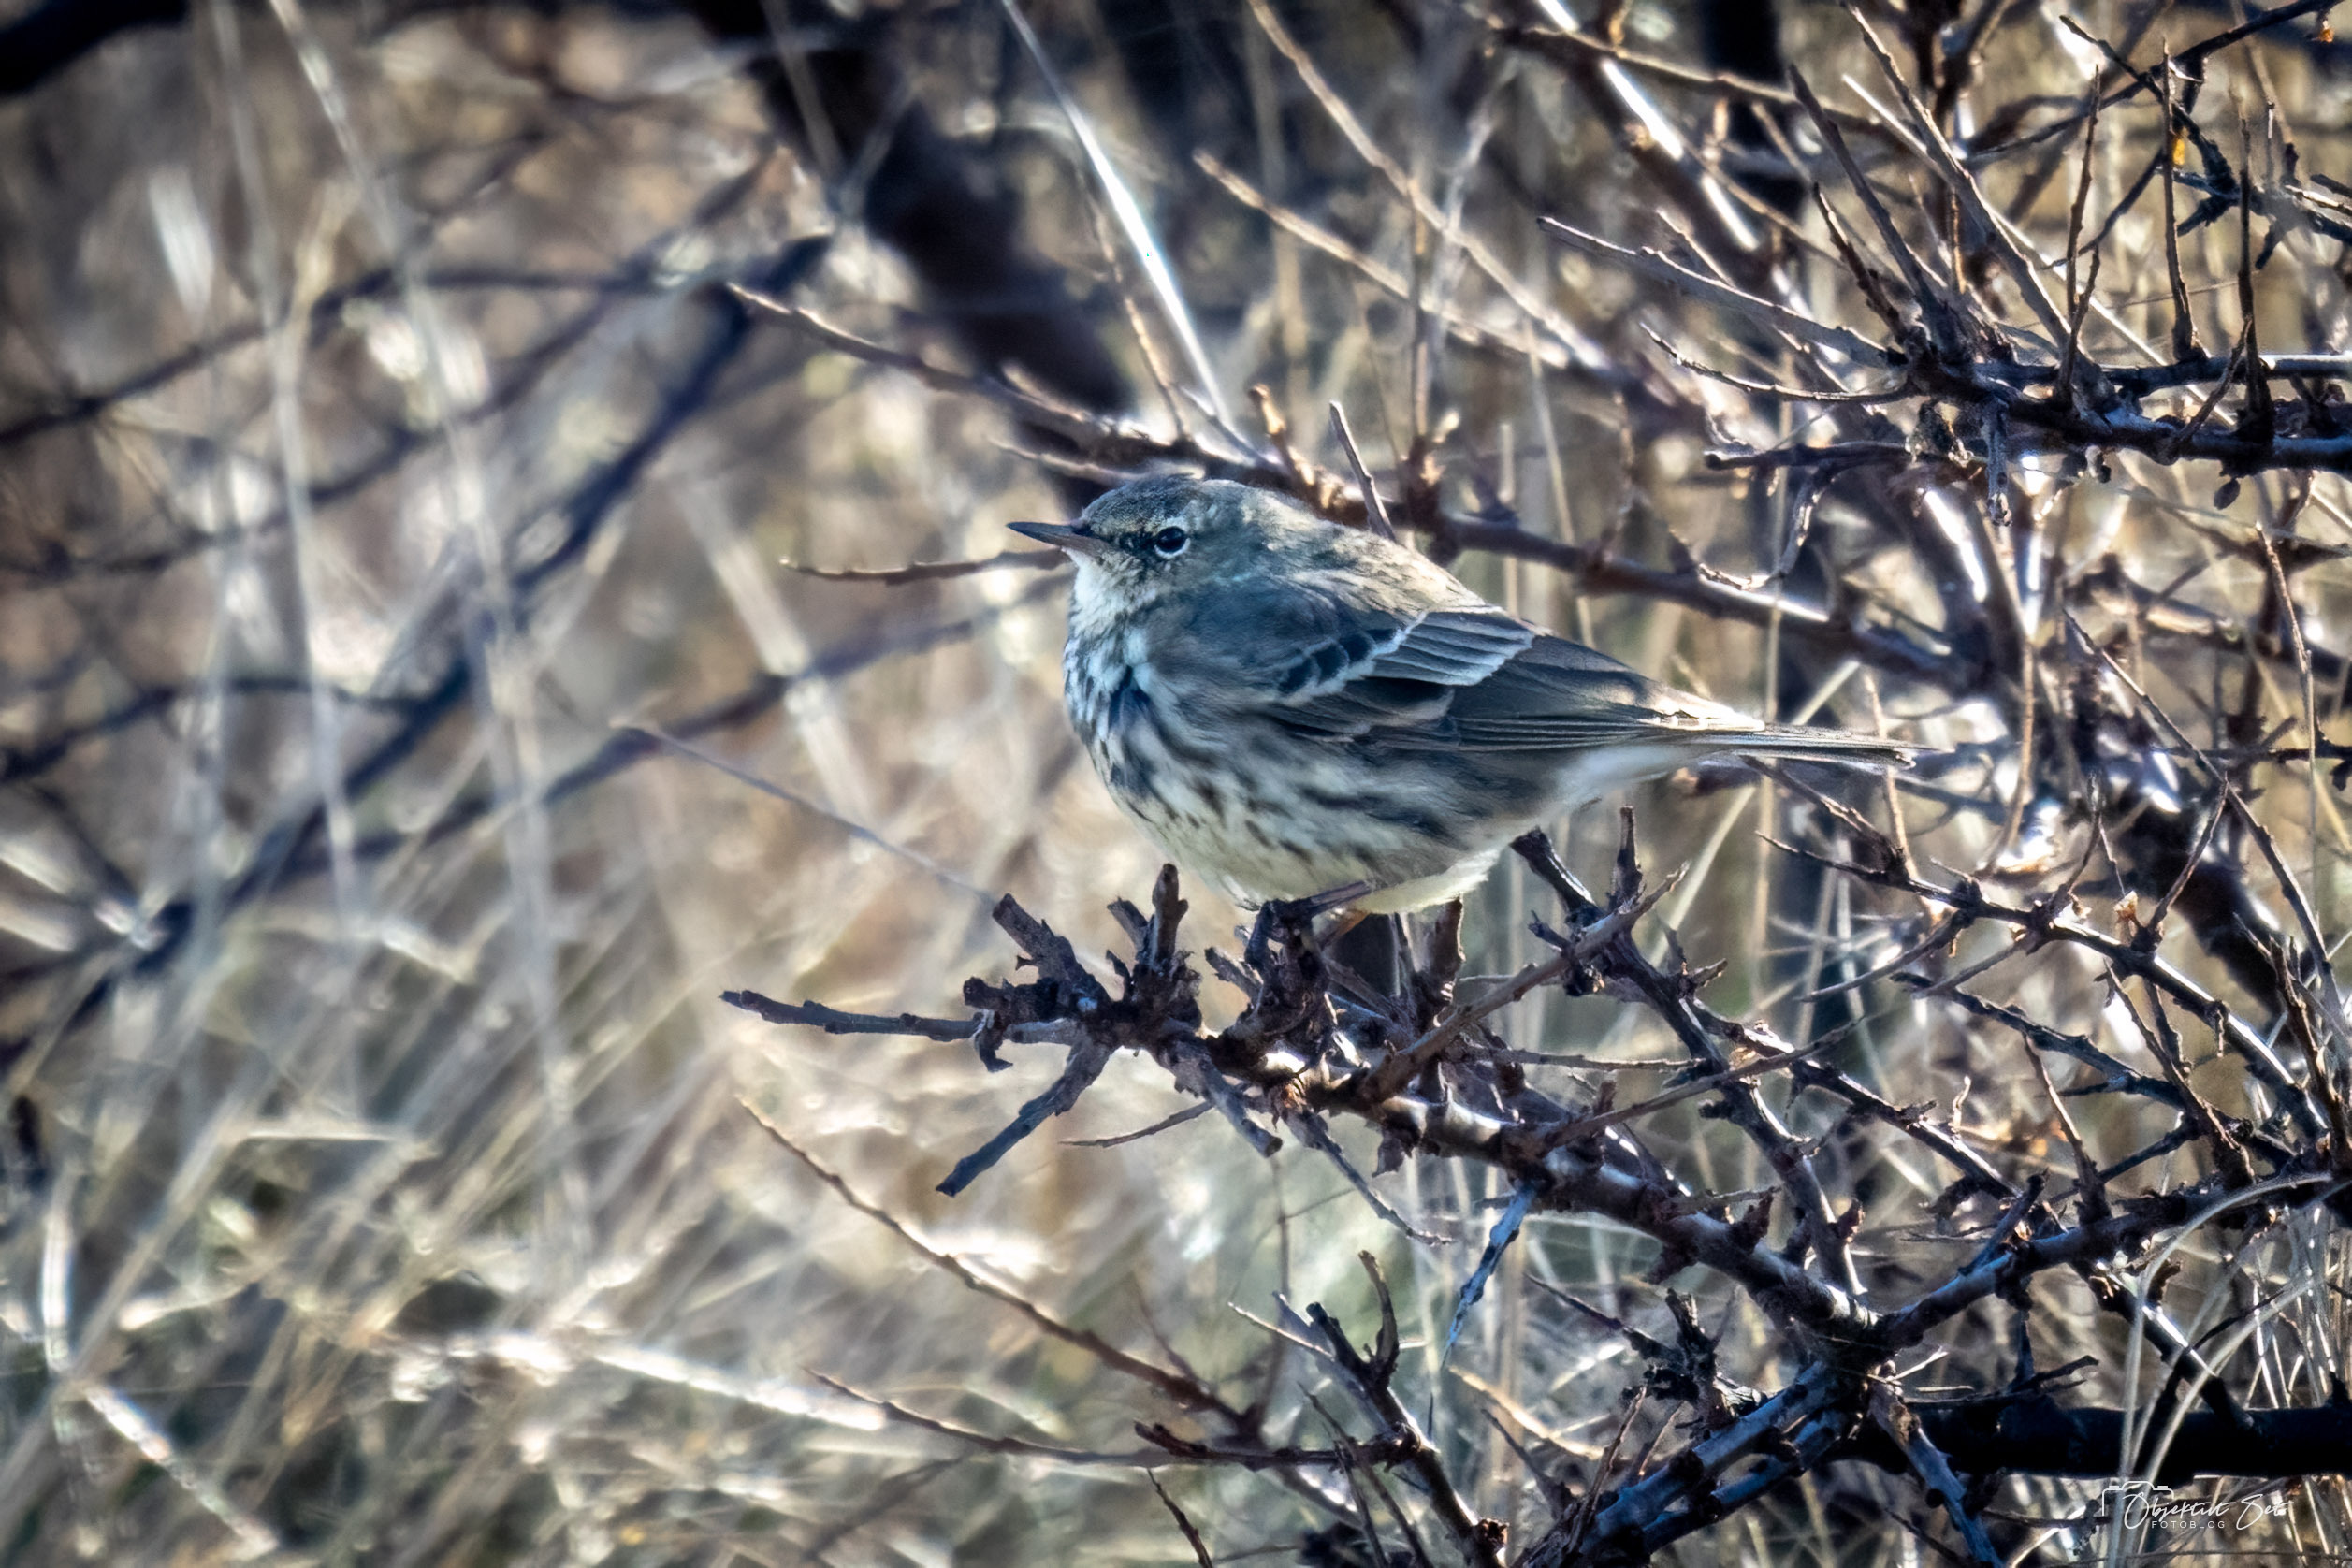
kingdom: Animalia
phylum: Chordata
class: Aves
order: Passeriformes
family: Motacillidae
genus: Anthus
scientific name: Anthus pratensis
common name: Engpiber
